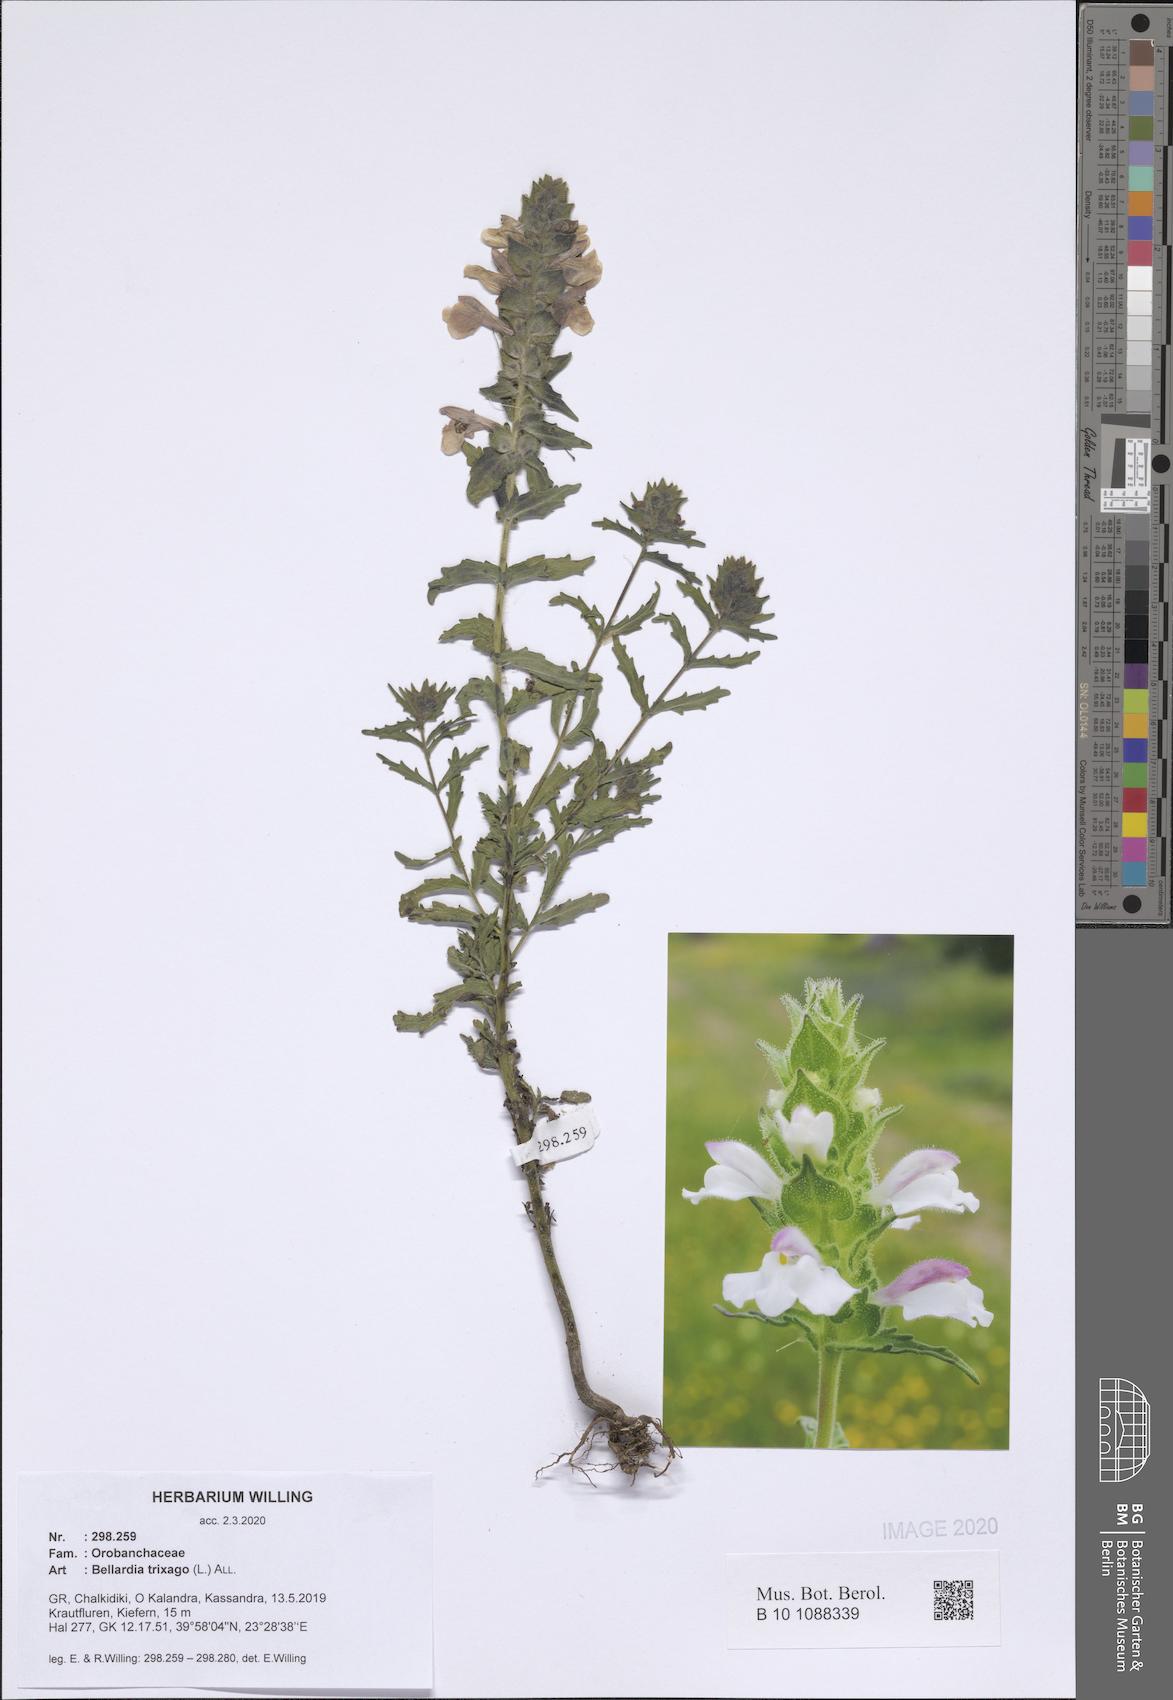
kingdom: Plantae
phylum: Tracheophyta
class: Magnoliopsida
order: Lamiales
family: Orobanchaceae
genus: Bellardia
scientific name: Bellardia trixago
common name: Mediterranean lineseed
